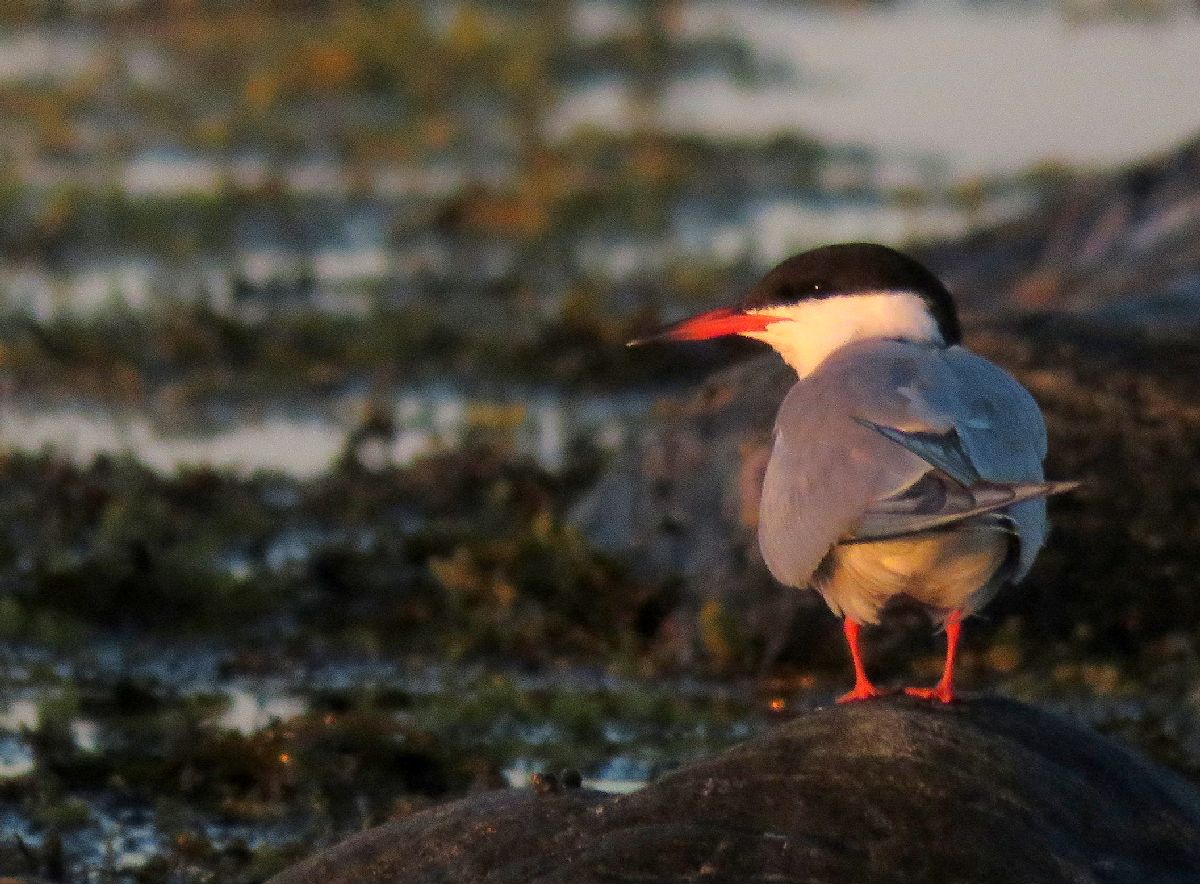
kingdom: Animalia
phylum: Chordata
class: Aves
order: Charadriiformes
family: Laridae
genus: Sterna
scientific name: Sterna hirundo
